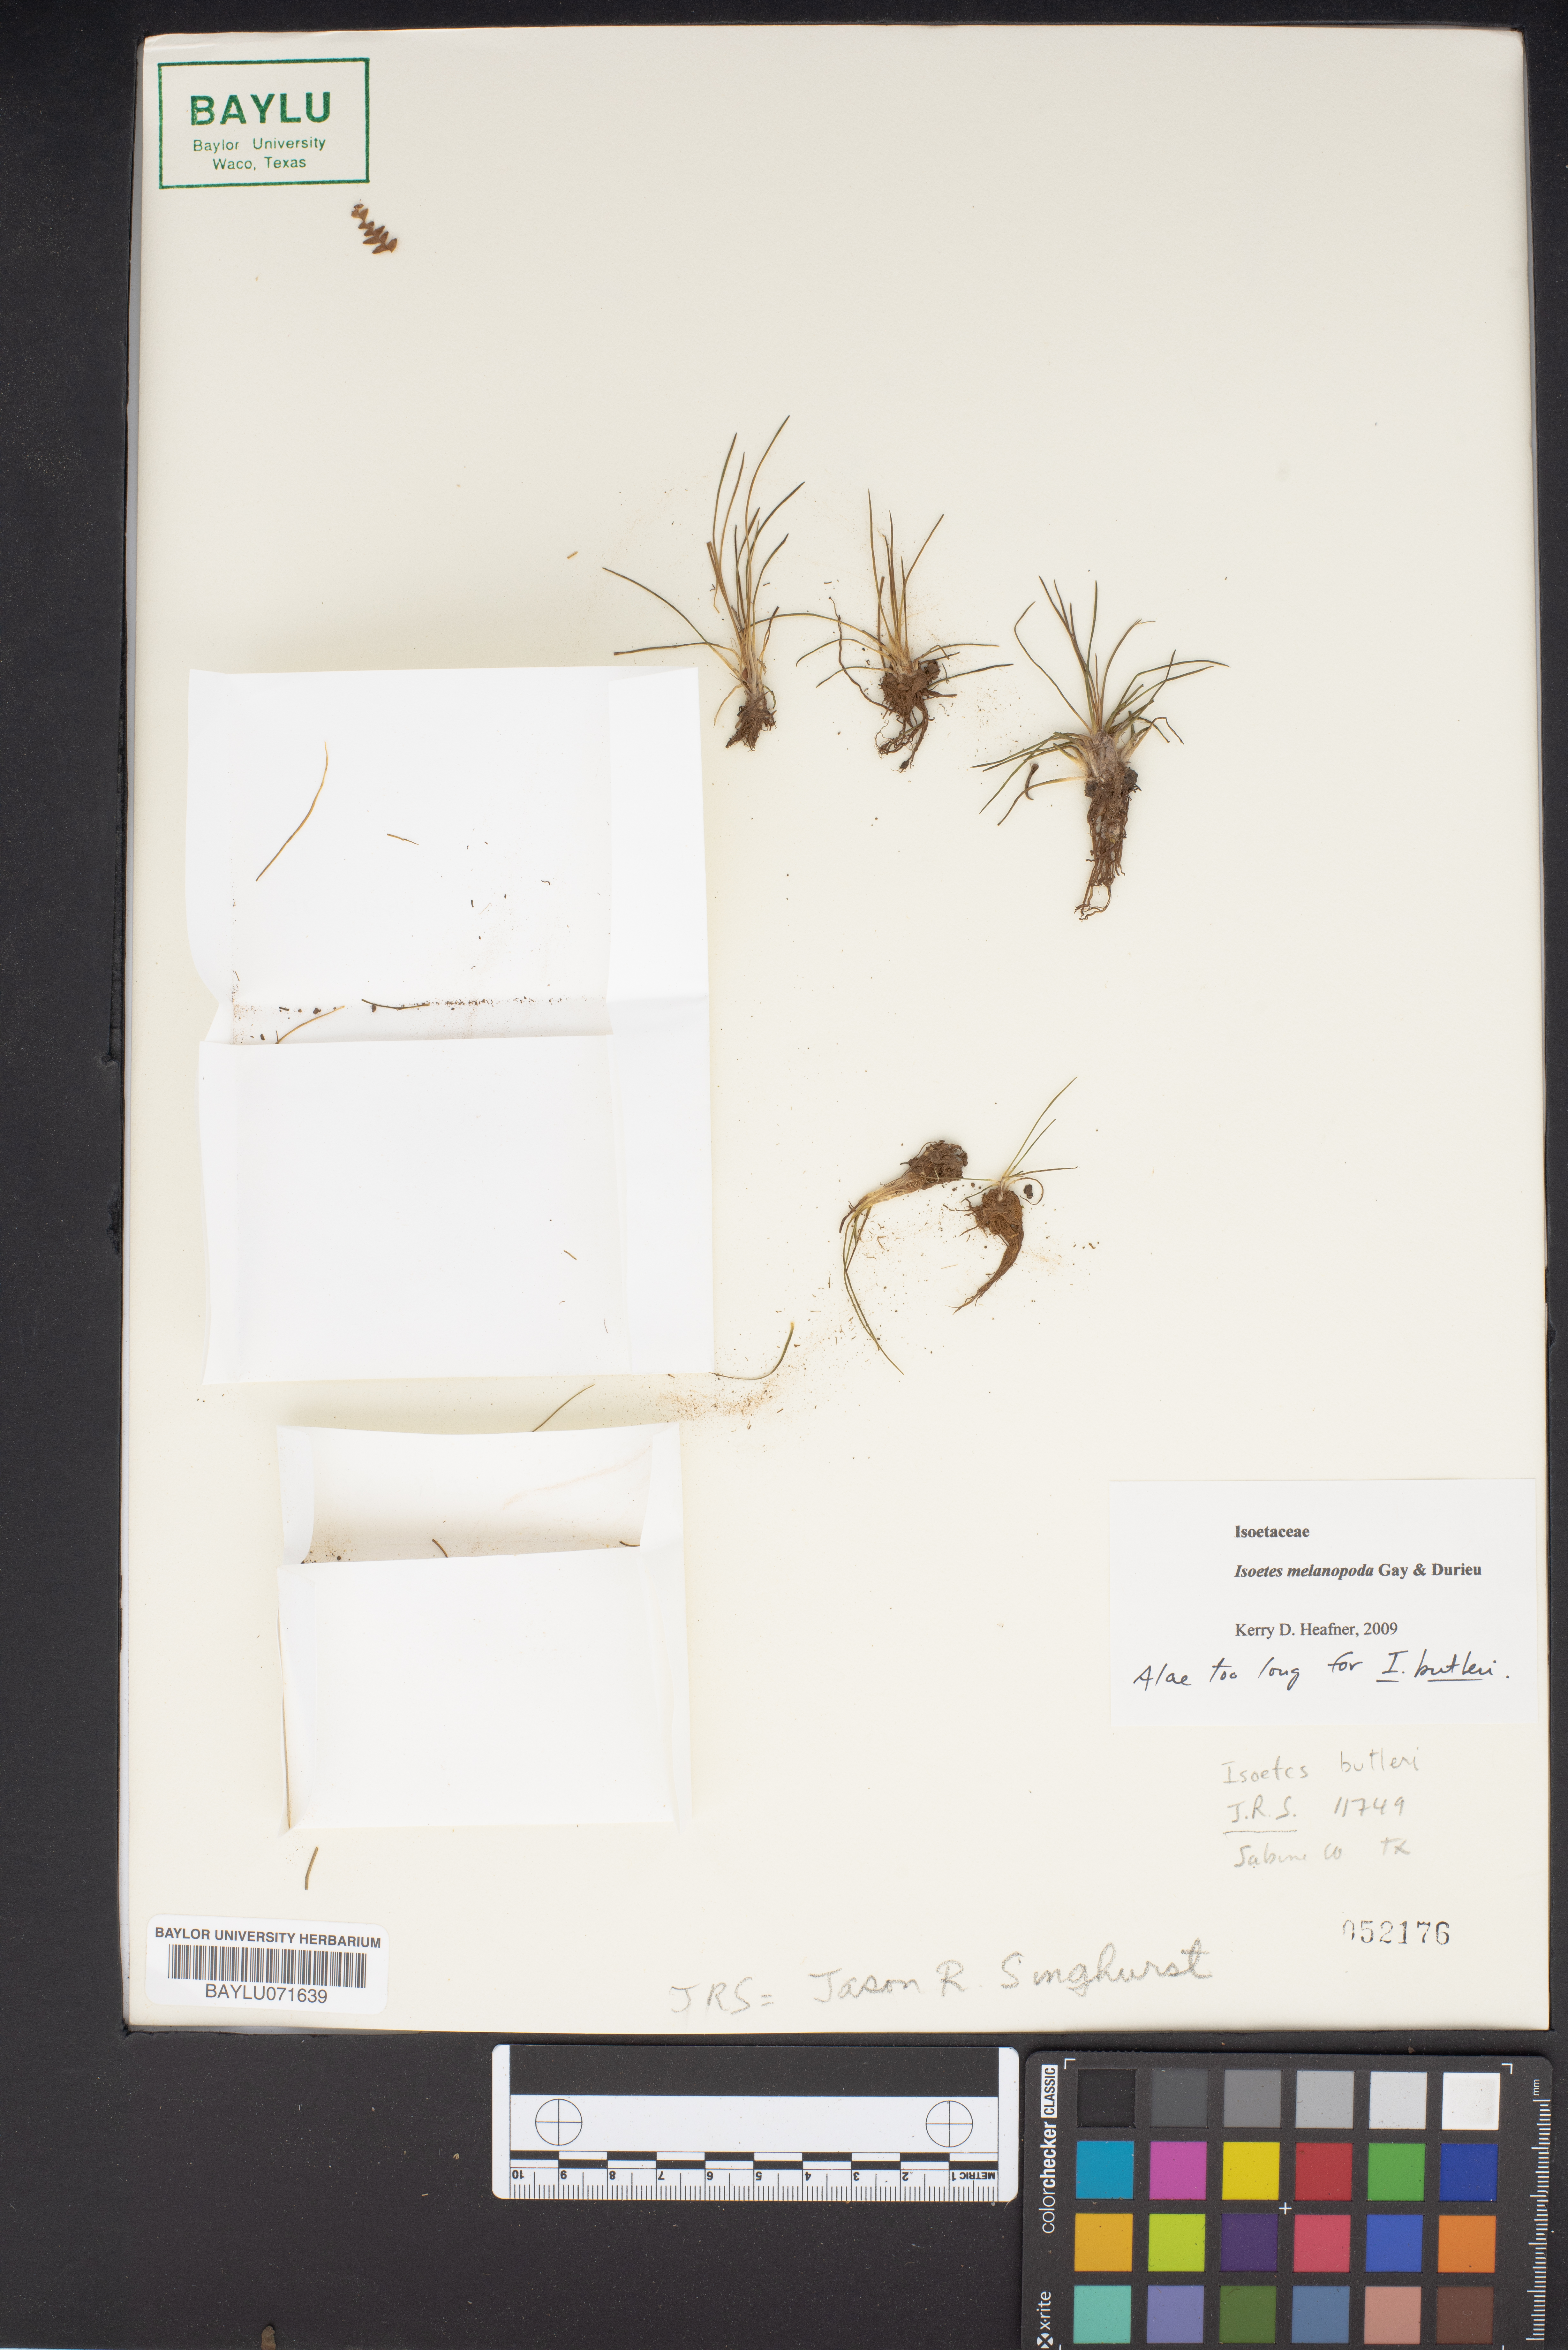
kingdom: Plantae
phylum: Tracheophyta
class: Lycopodiopsida
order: Isoetales
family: Isoetaceae
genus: Isoetes
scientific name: Isoetes melanopoda
